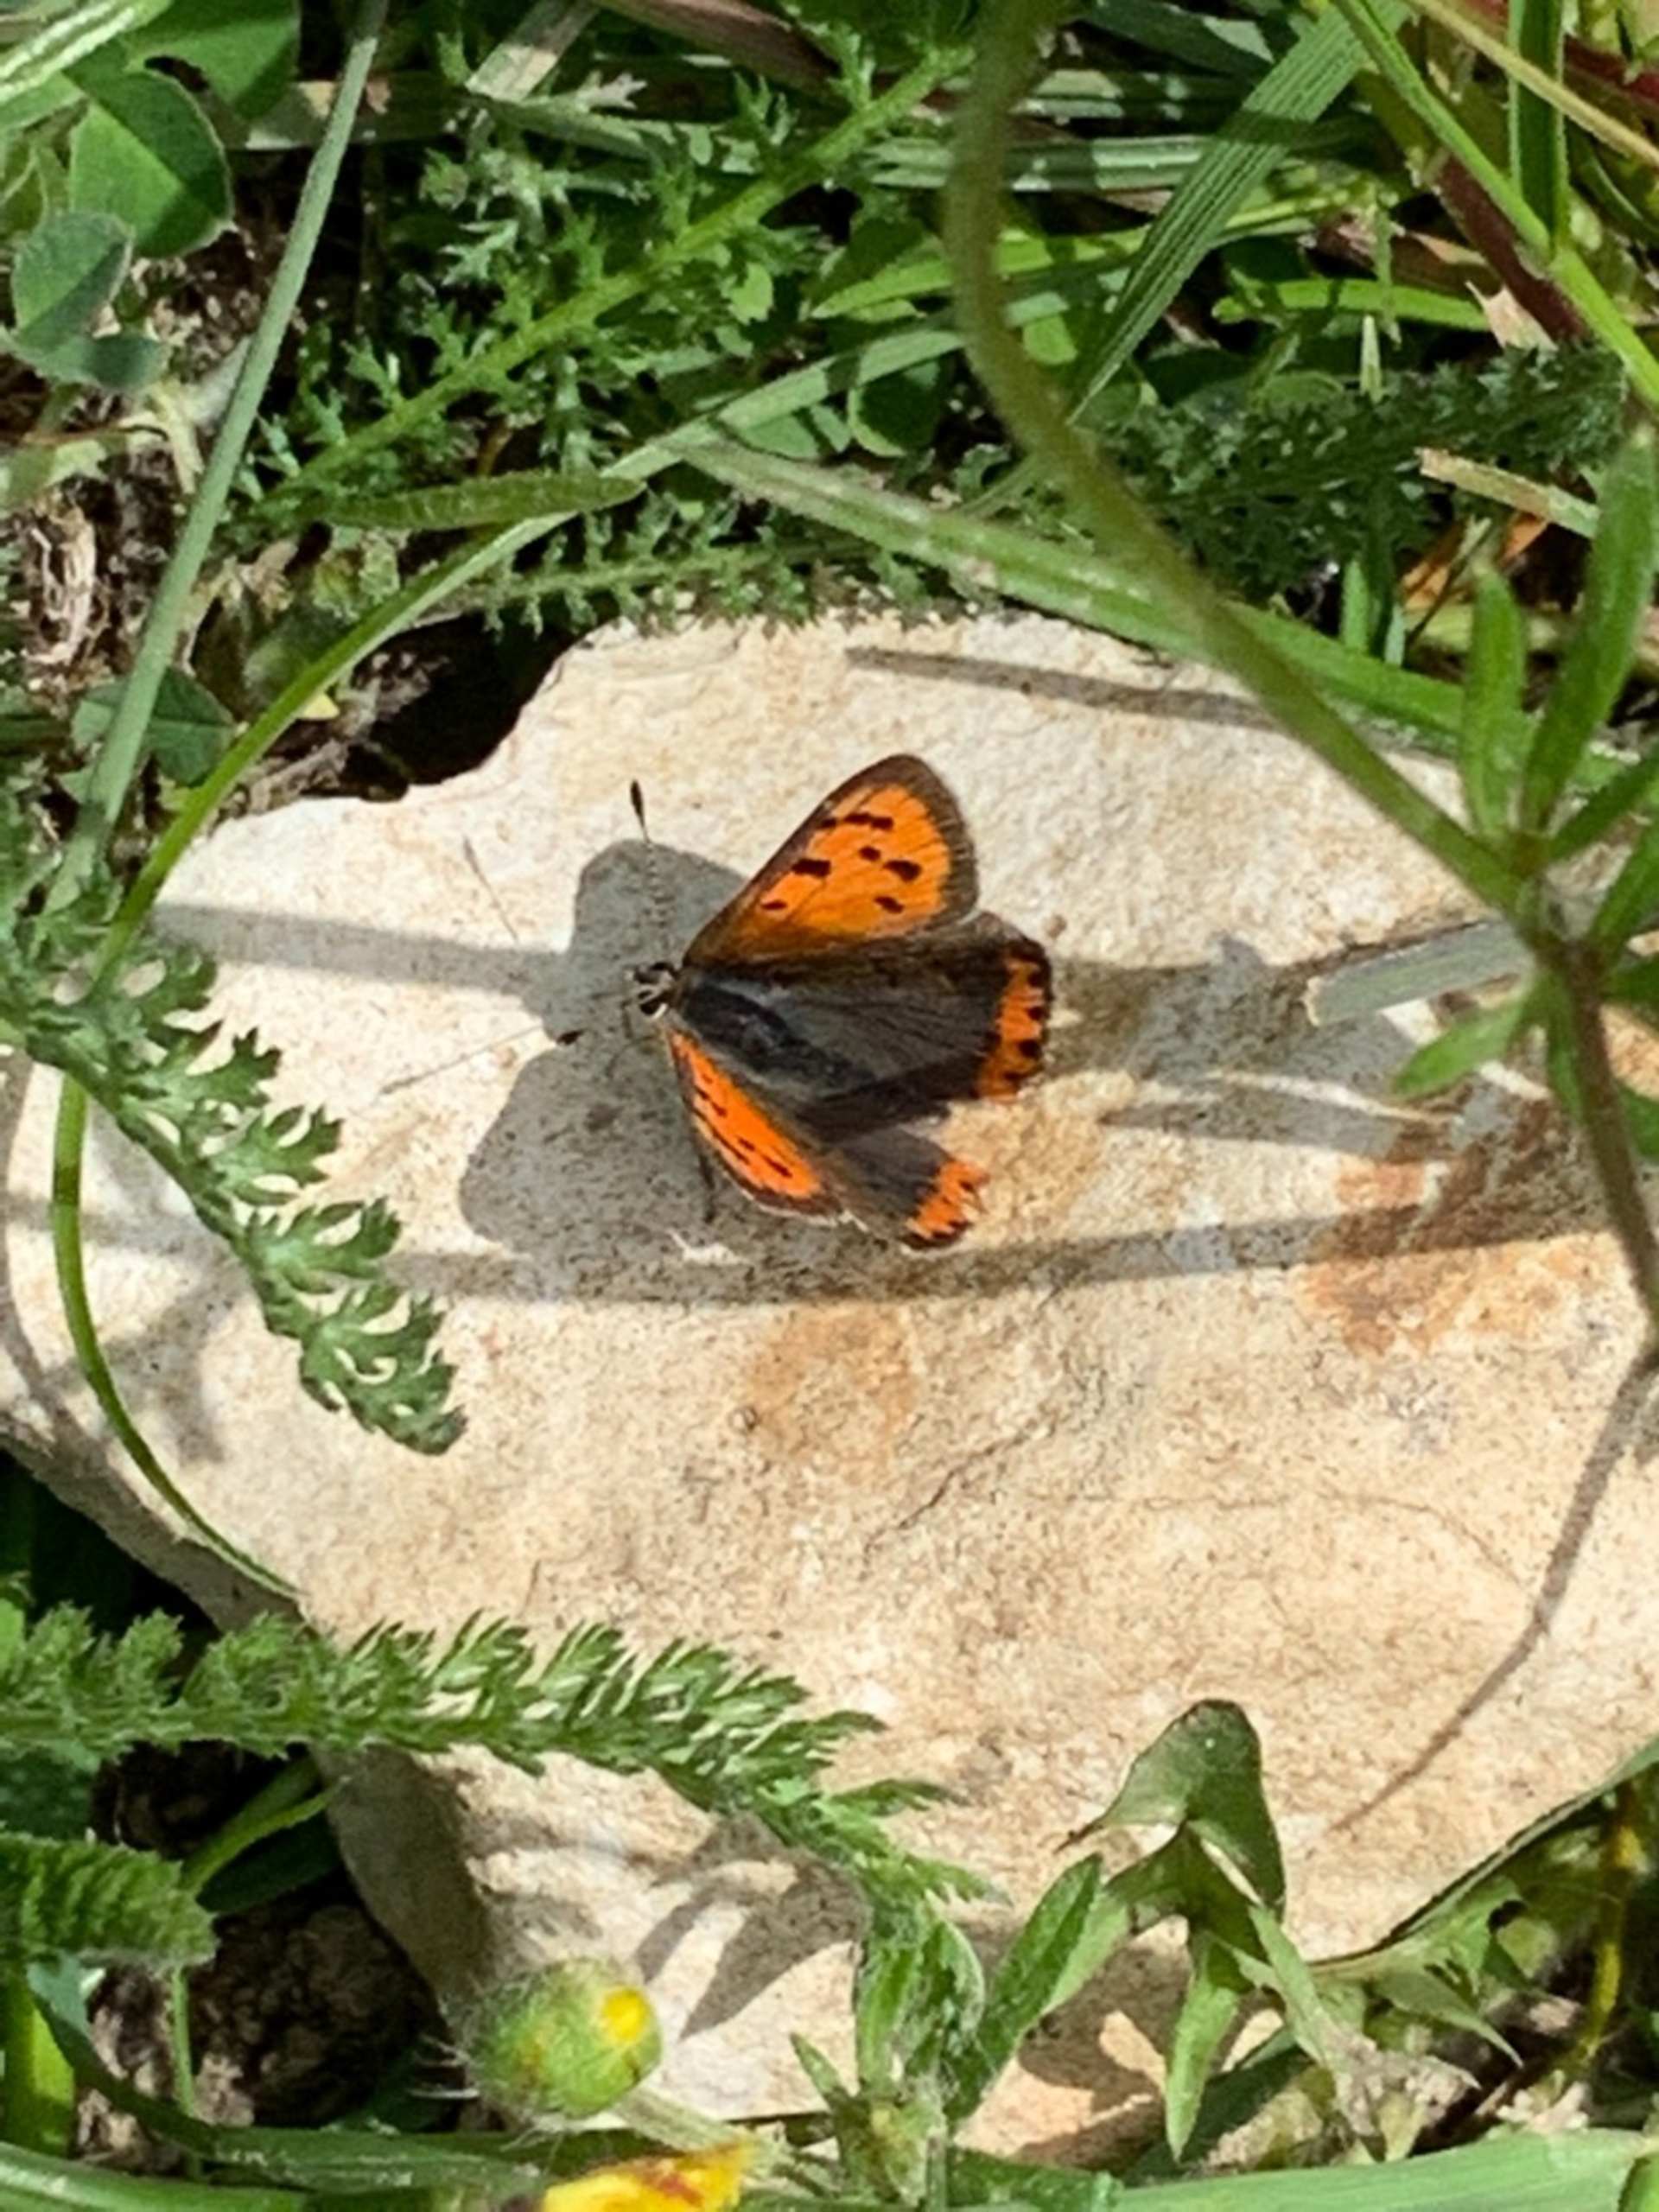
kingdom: Animalia
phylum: Arthropoda
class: Insecta
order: Lepidoptera
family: Lycaenidae
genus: Lycaena
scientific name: Lycaena phlaeas
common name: Lille ildfugl
